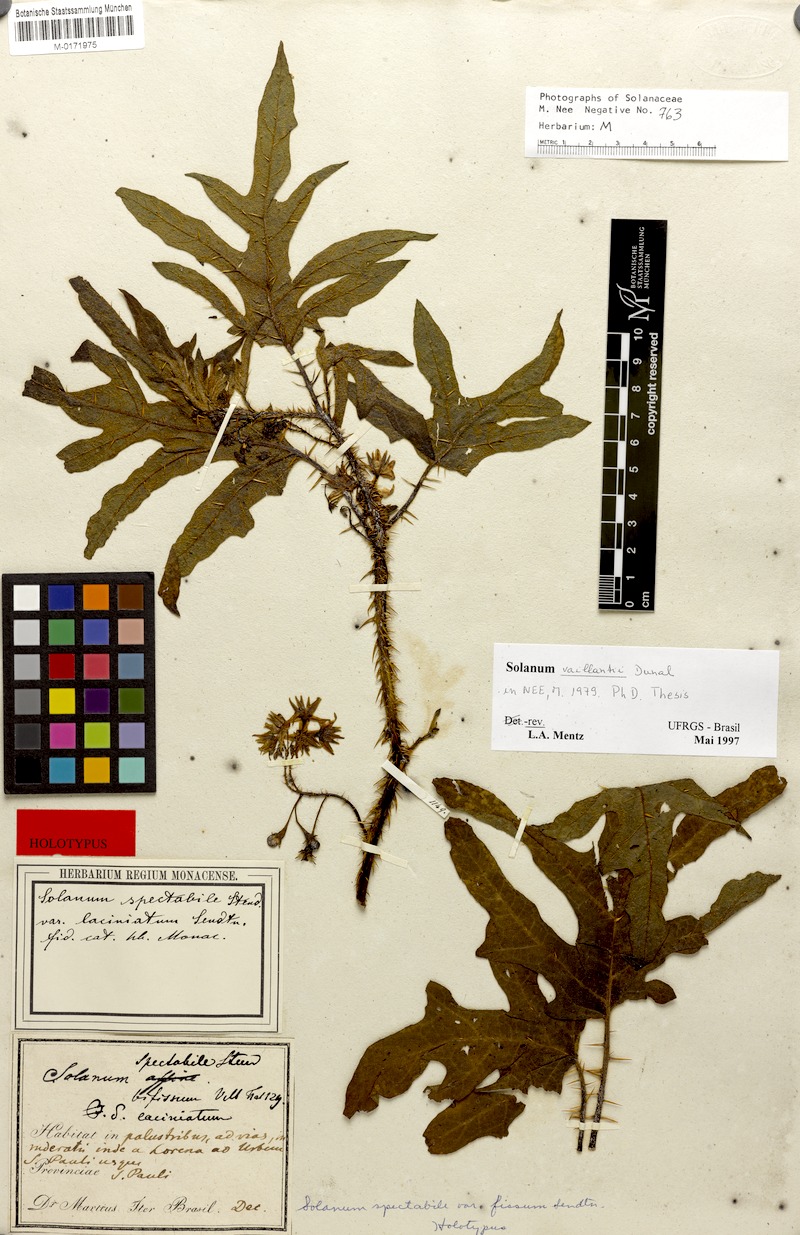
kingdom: Plantae
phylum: Tracheophyta
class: Magnoliopsida
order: Solanales
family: Solanaceae
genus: Solanum
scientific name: Solanum vaillantii
